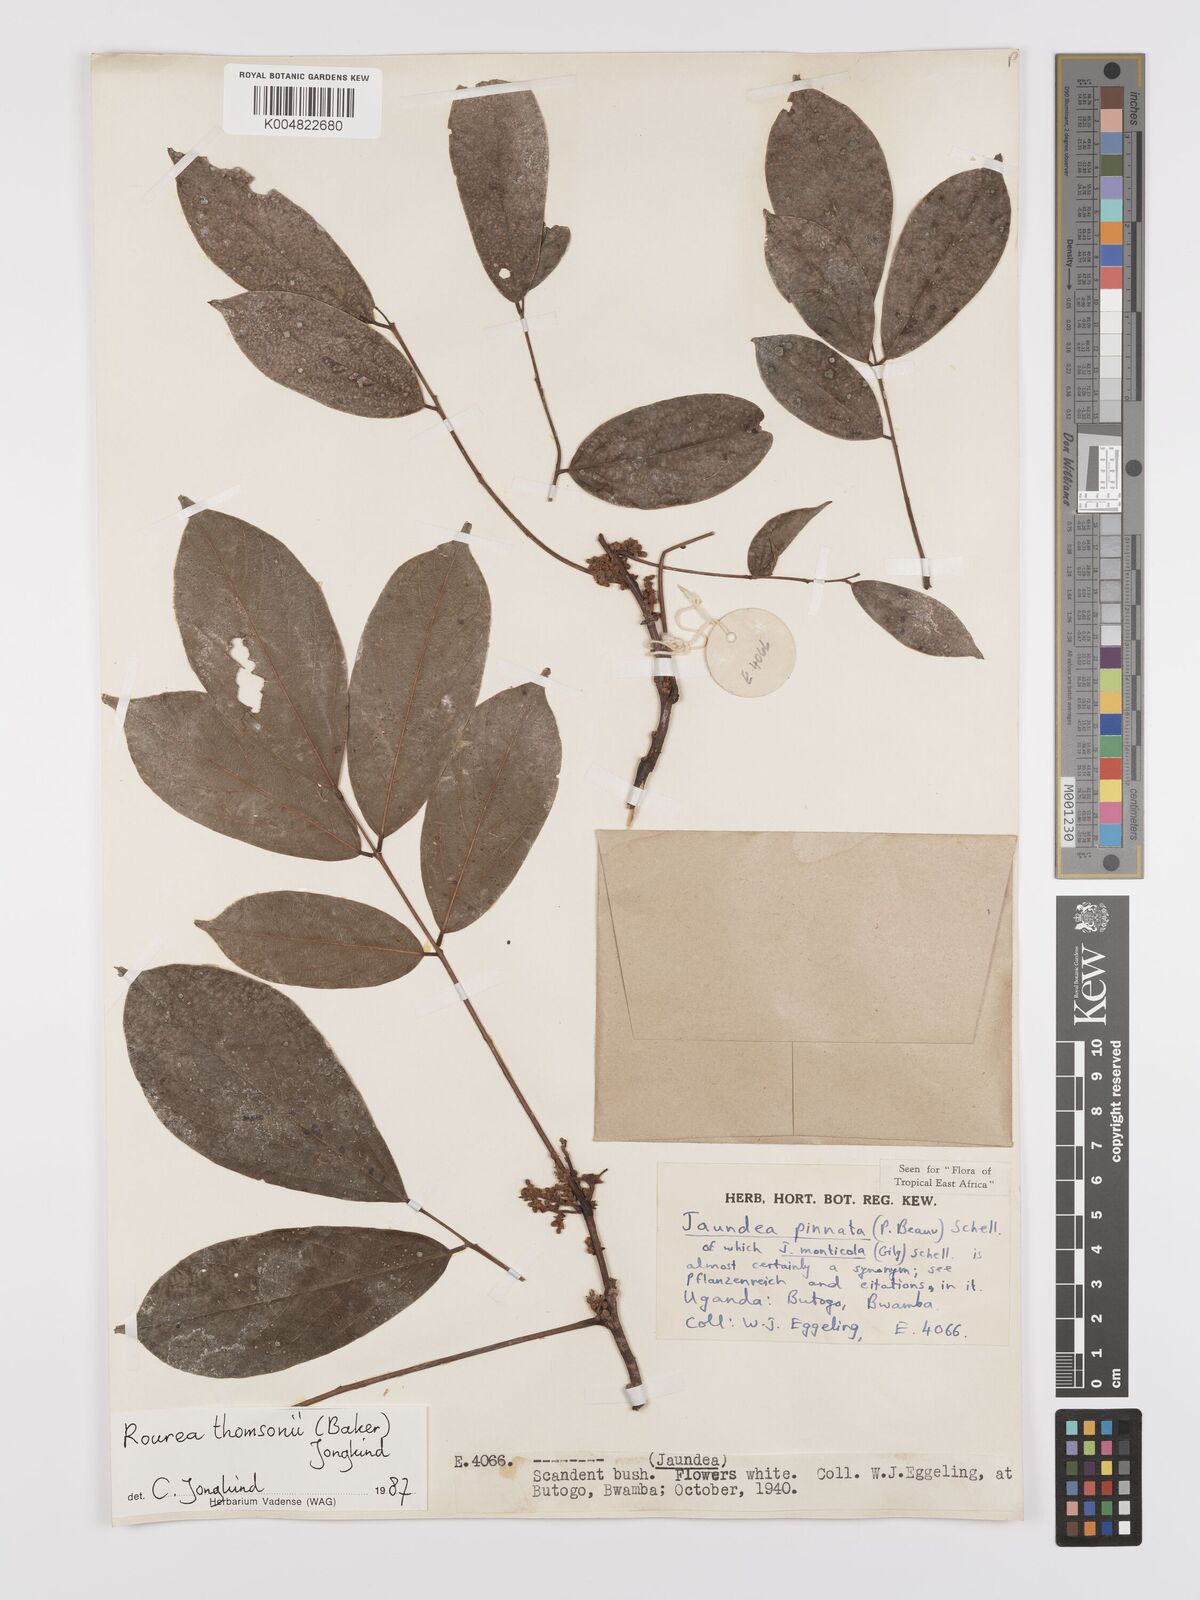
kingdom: Plantae
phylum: Tracheophyta
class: Magnoliopsida
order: Oxalidales
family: Connaraceae
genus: Rourea
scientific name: Rourea pinnata
